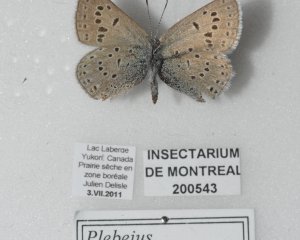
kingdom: Animalia
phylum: Arthropoda
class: Insecta
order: Lepidoptera
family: Lycaenidae
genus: Plebejus
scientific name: Plebejus saepiolus
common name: Greenish Blue
